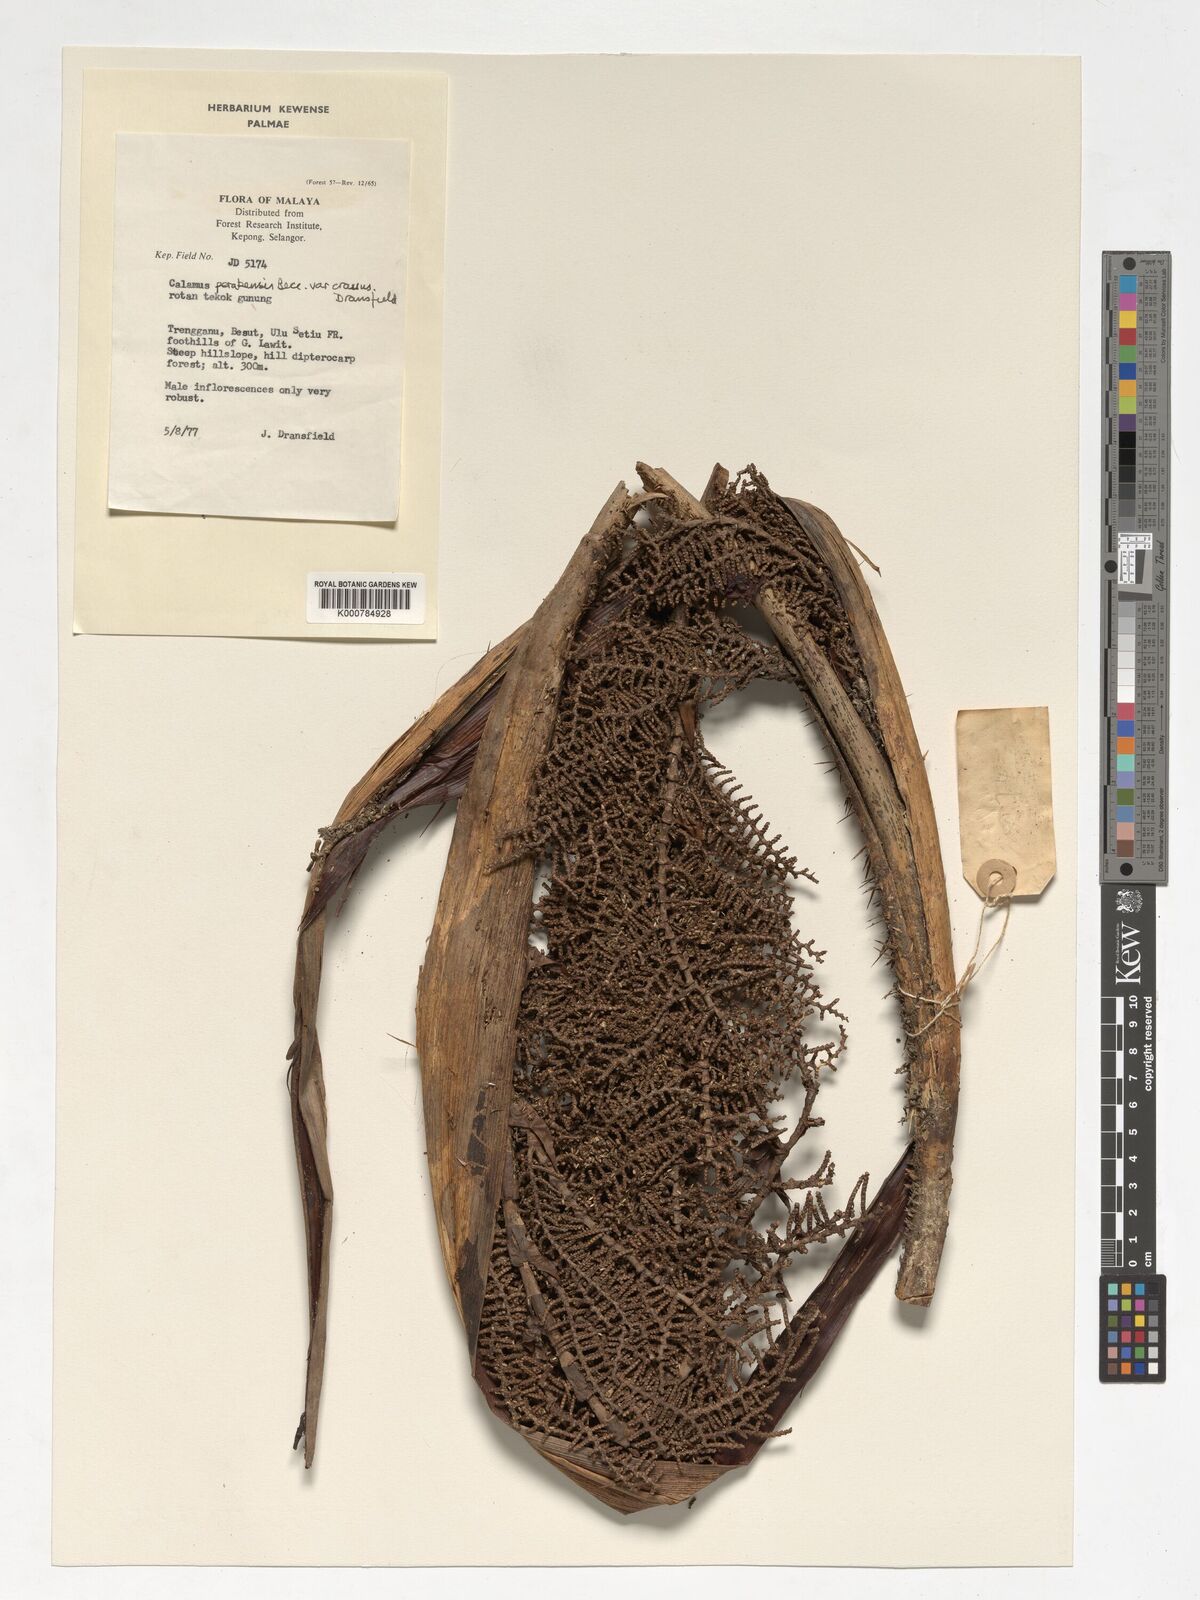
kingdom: Plantae
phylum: Tracheophyta
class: Liliopsida
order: Arecales
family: Arecaceae
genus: Calamus
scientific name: Calamus perakensis
